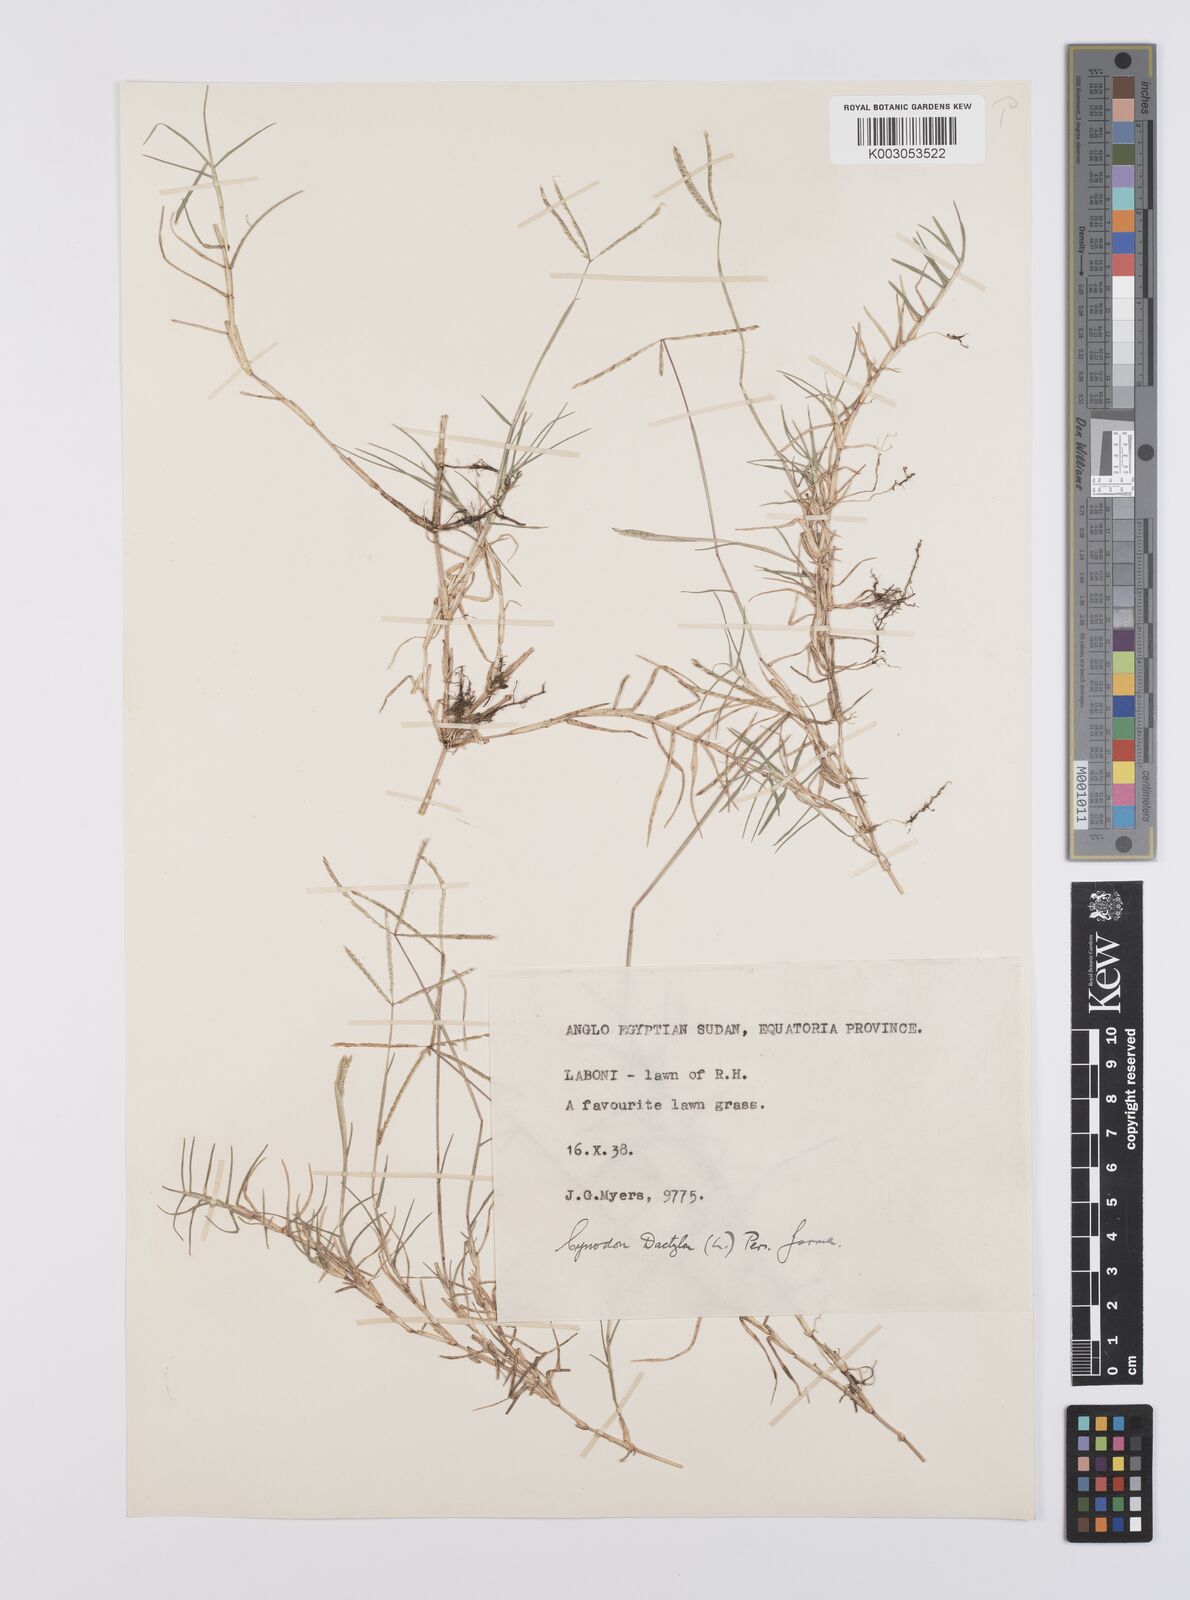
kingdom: Plantae
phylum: Tracheophyta
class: Liliopsida
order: Poales
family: Poaceae
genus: Cynodon
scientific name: Cynodon dactylon
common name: Bermuda grass
